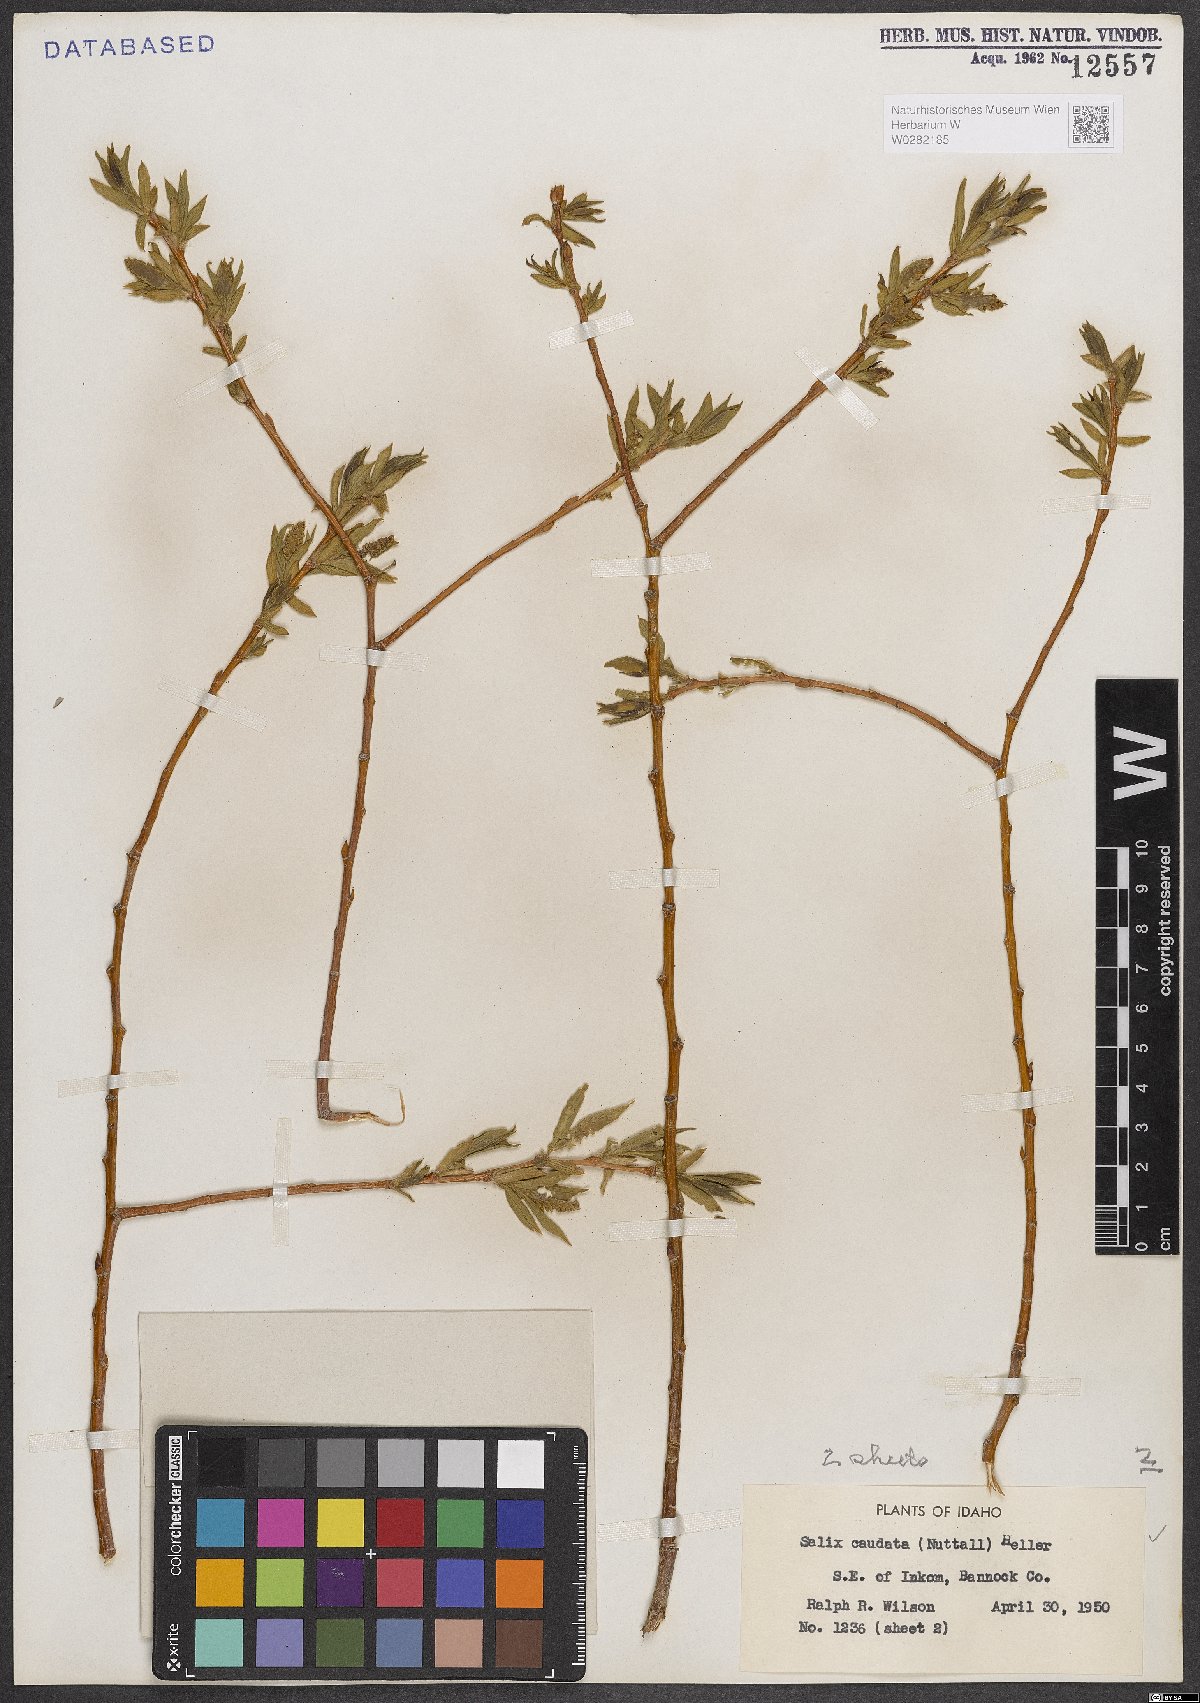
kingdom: Plantae
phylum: Tracheophyta
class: Magnoliopsida
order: Malpighiales
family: Salicaceae
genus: Salix
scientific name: Salix lucida
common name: Shining willow
